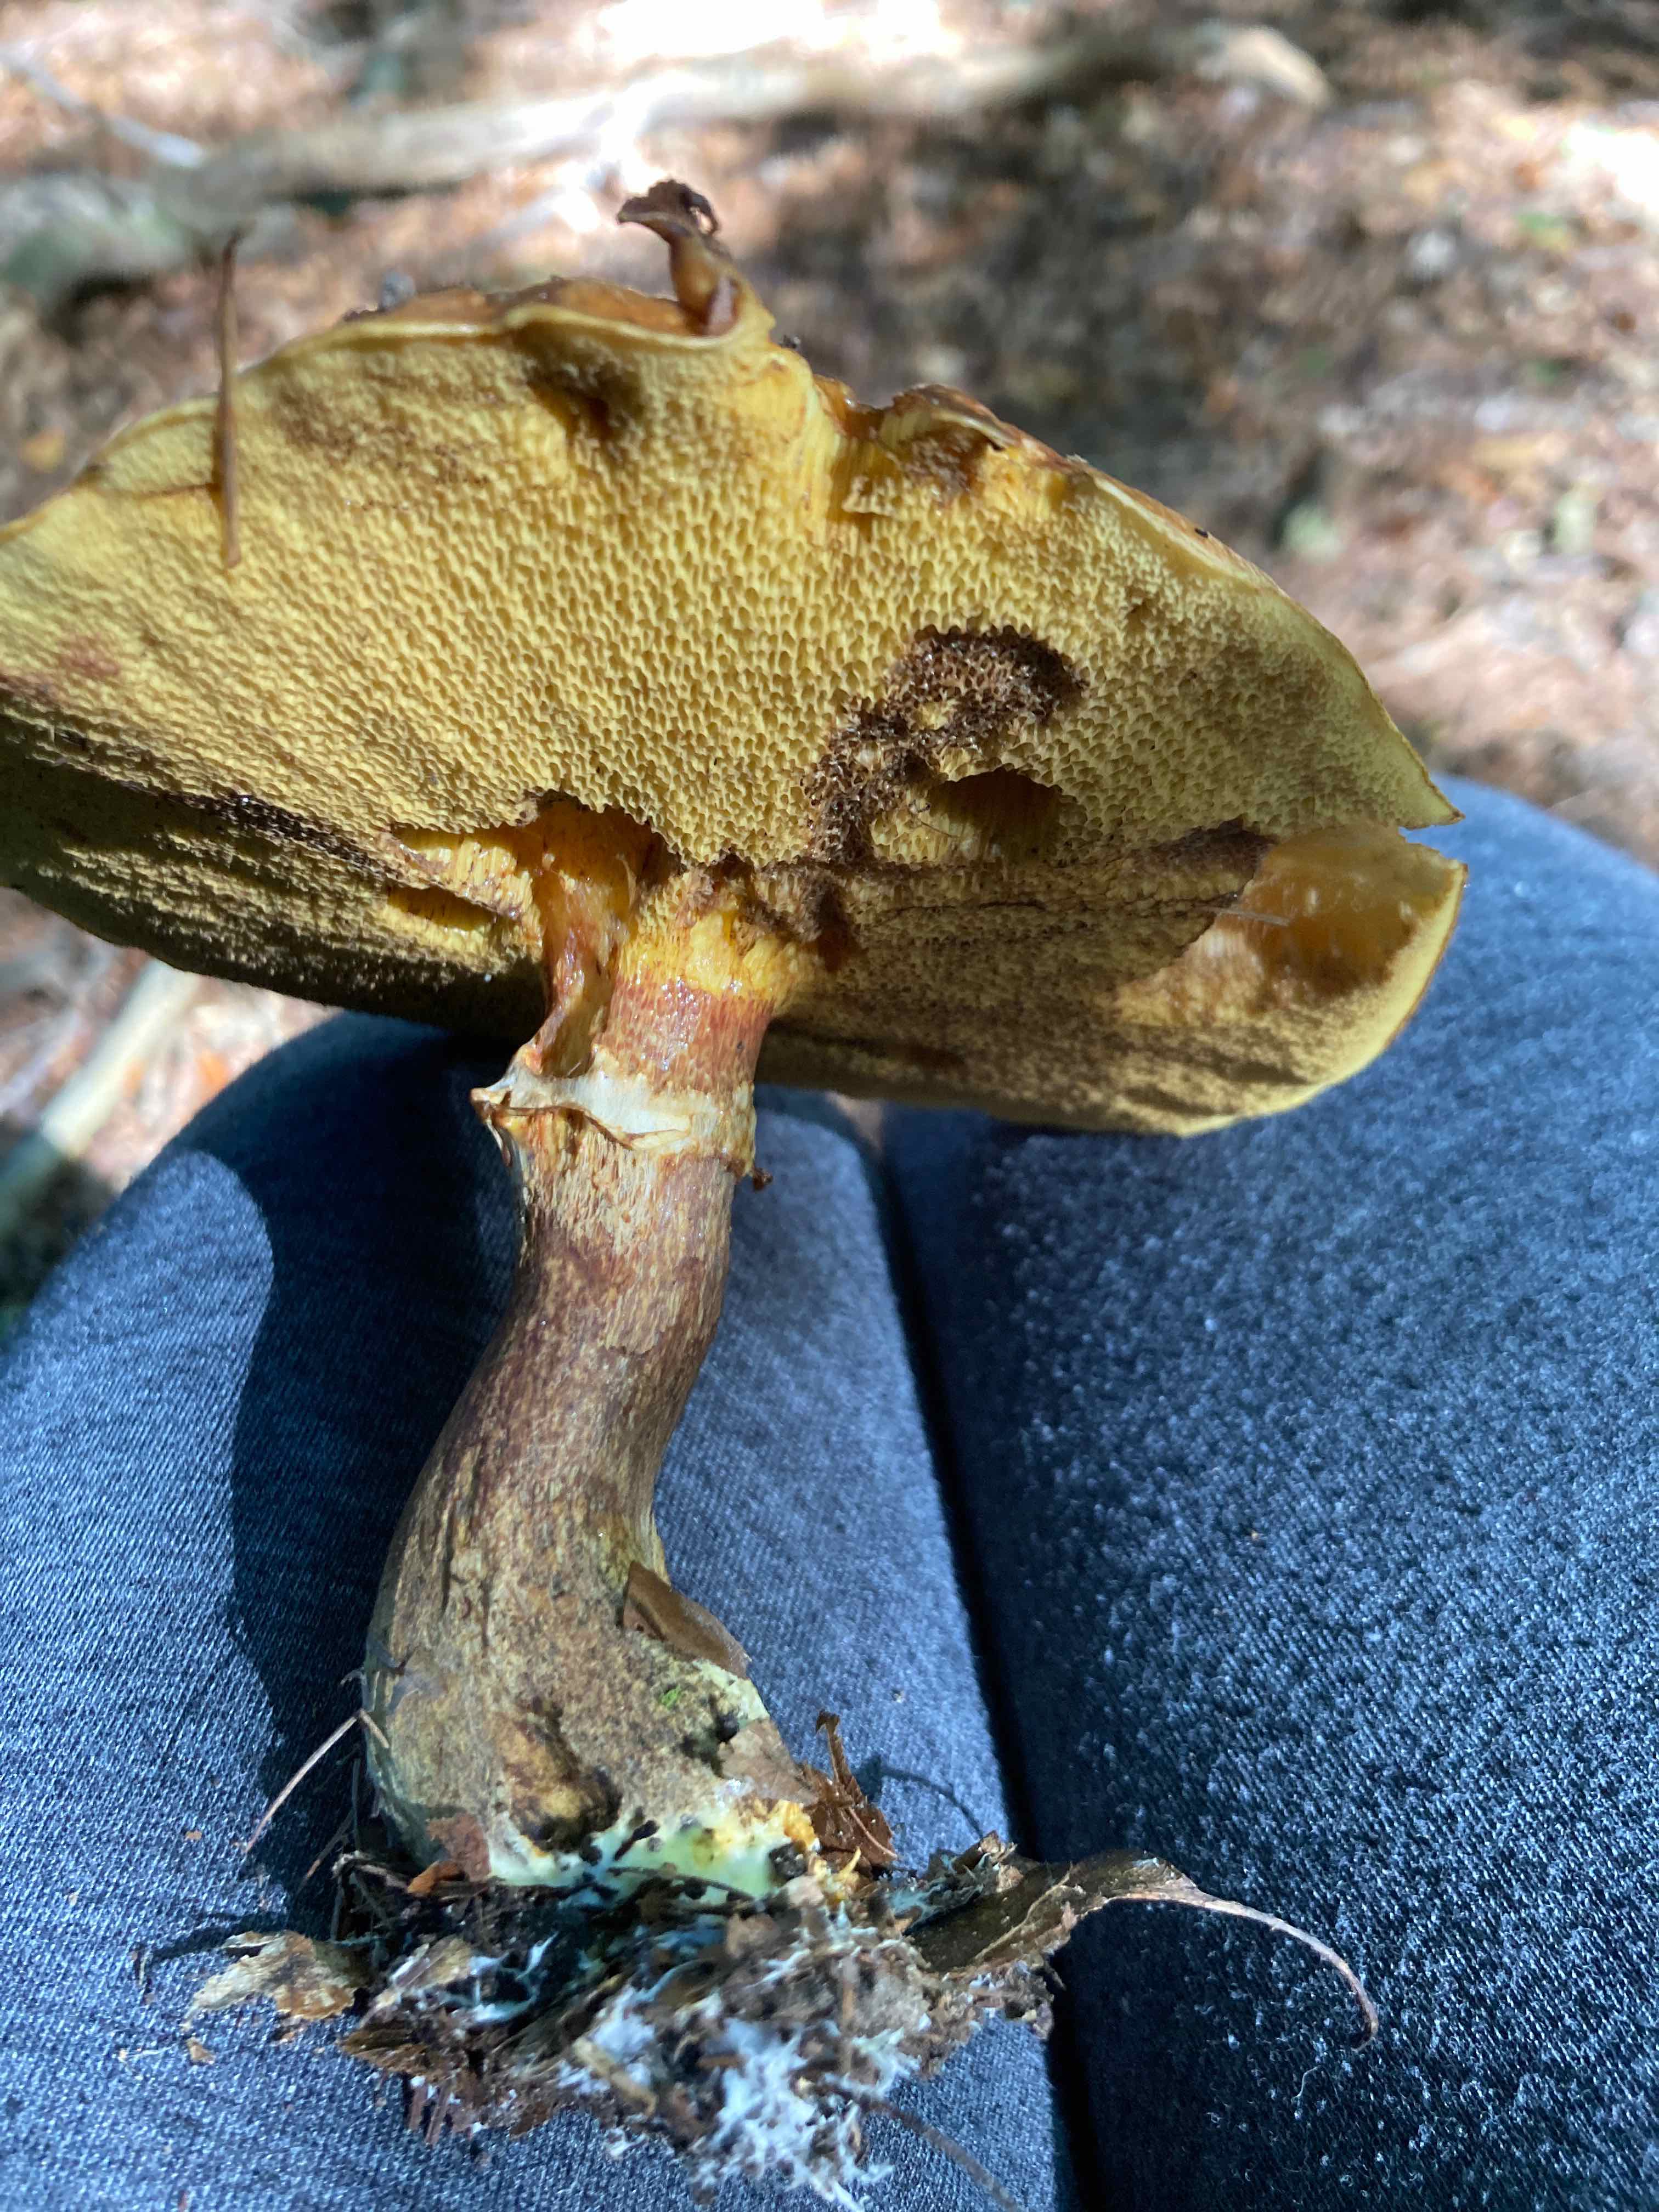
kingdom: Fungi
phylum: Basidiomycota
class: Agaricomycetes
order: Boletales
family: Suillaceae
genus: Suillus
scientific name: Suillus grevillei
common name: lærke-slimrørhat
